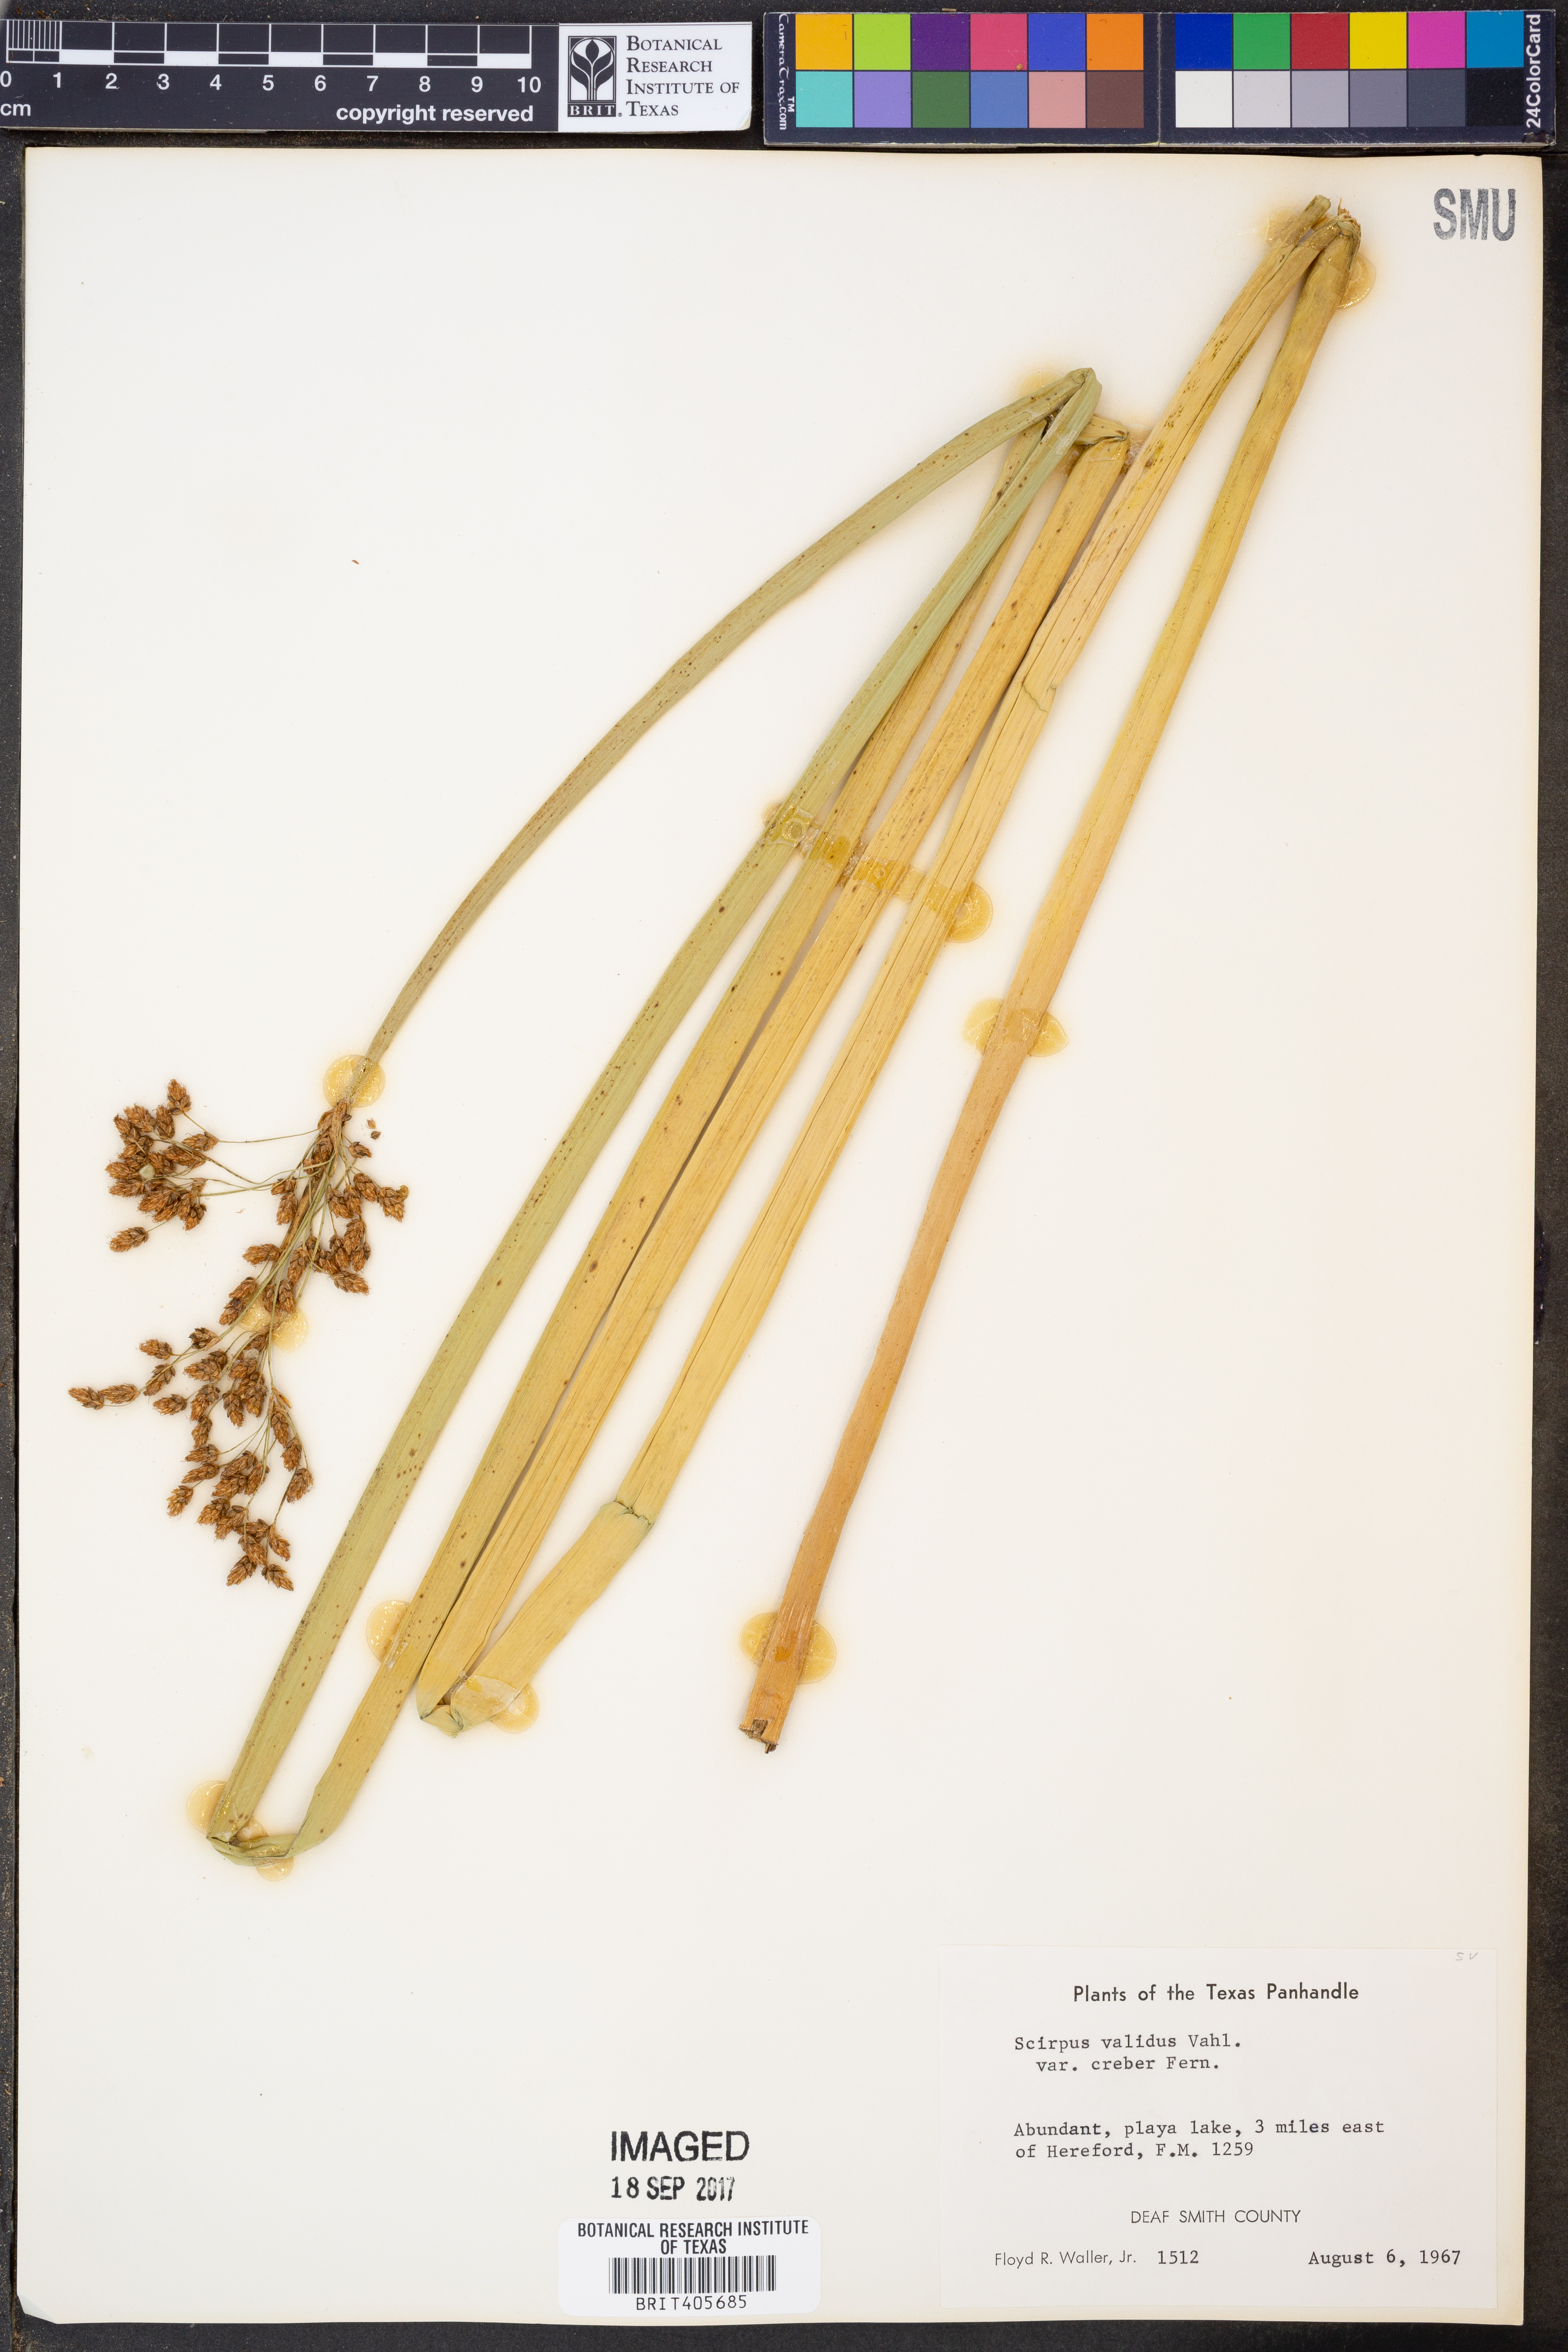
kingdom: Plantae
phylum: Tracheophyta
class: Liliopsida
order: Poales
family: Cyperaceae
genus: Schoenoplectus
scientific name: Schoenoplectus tabernaemontani
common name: Grey club-rush
